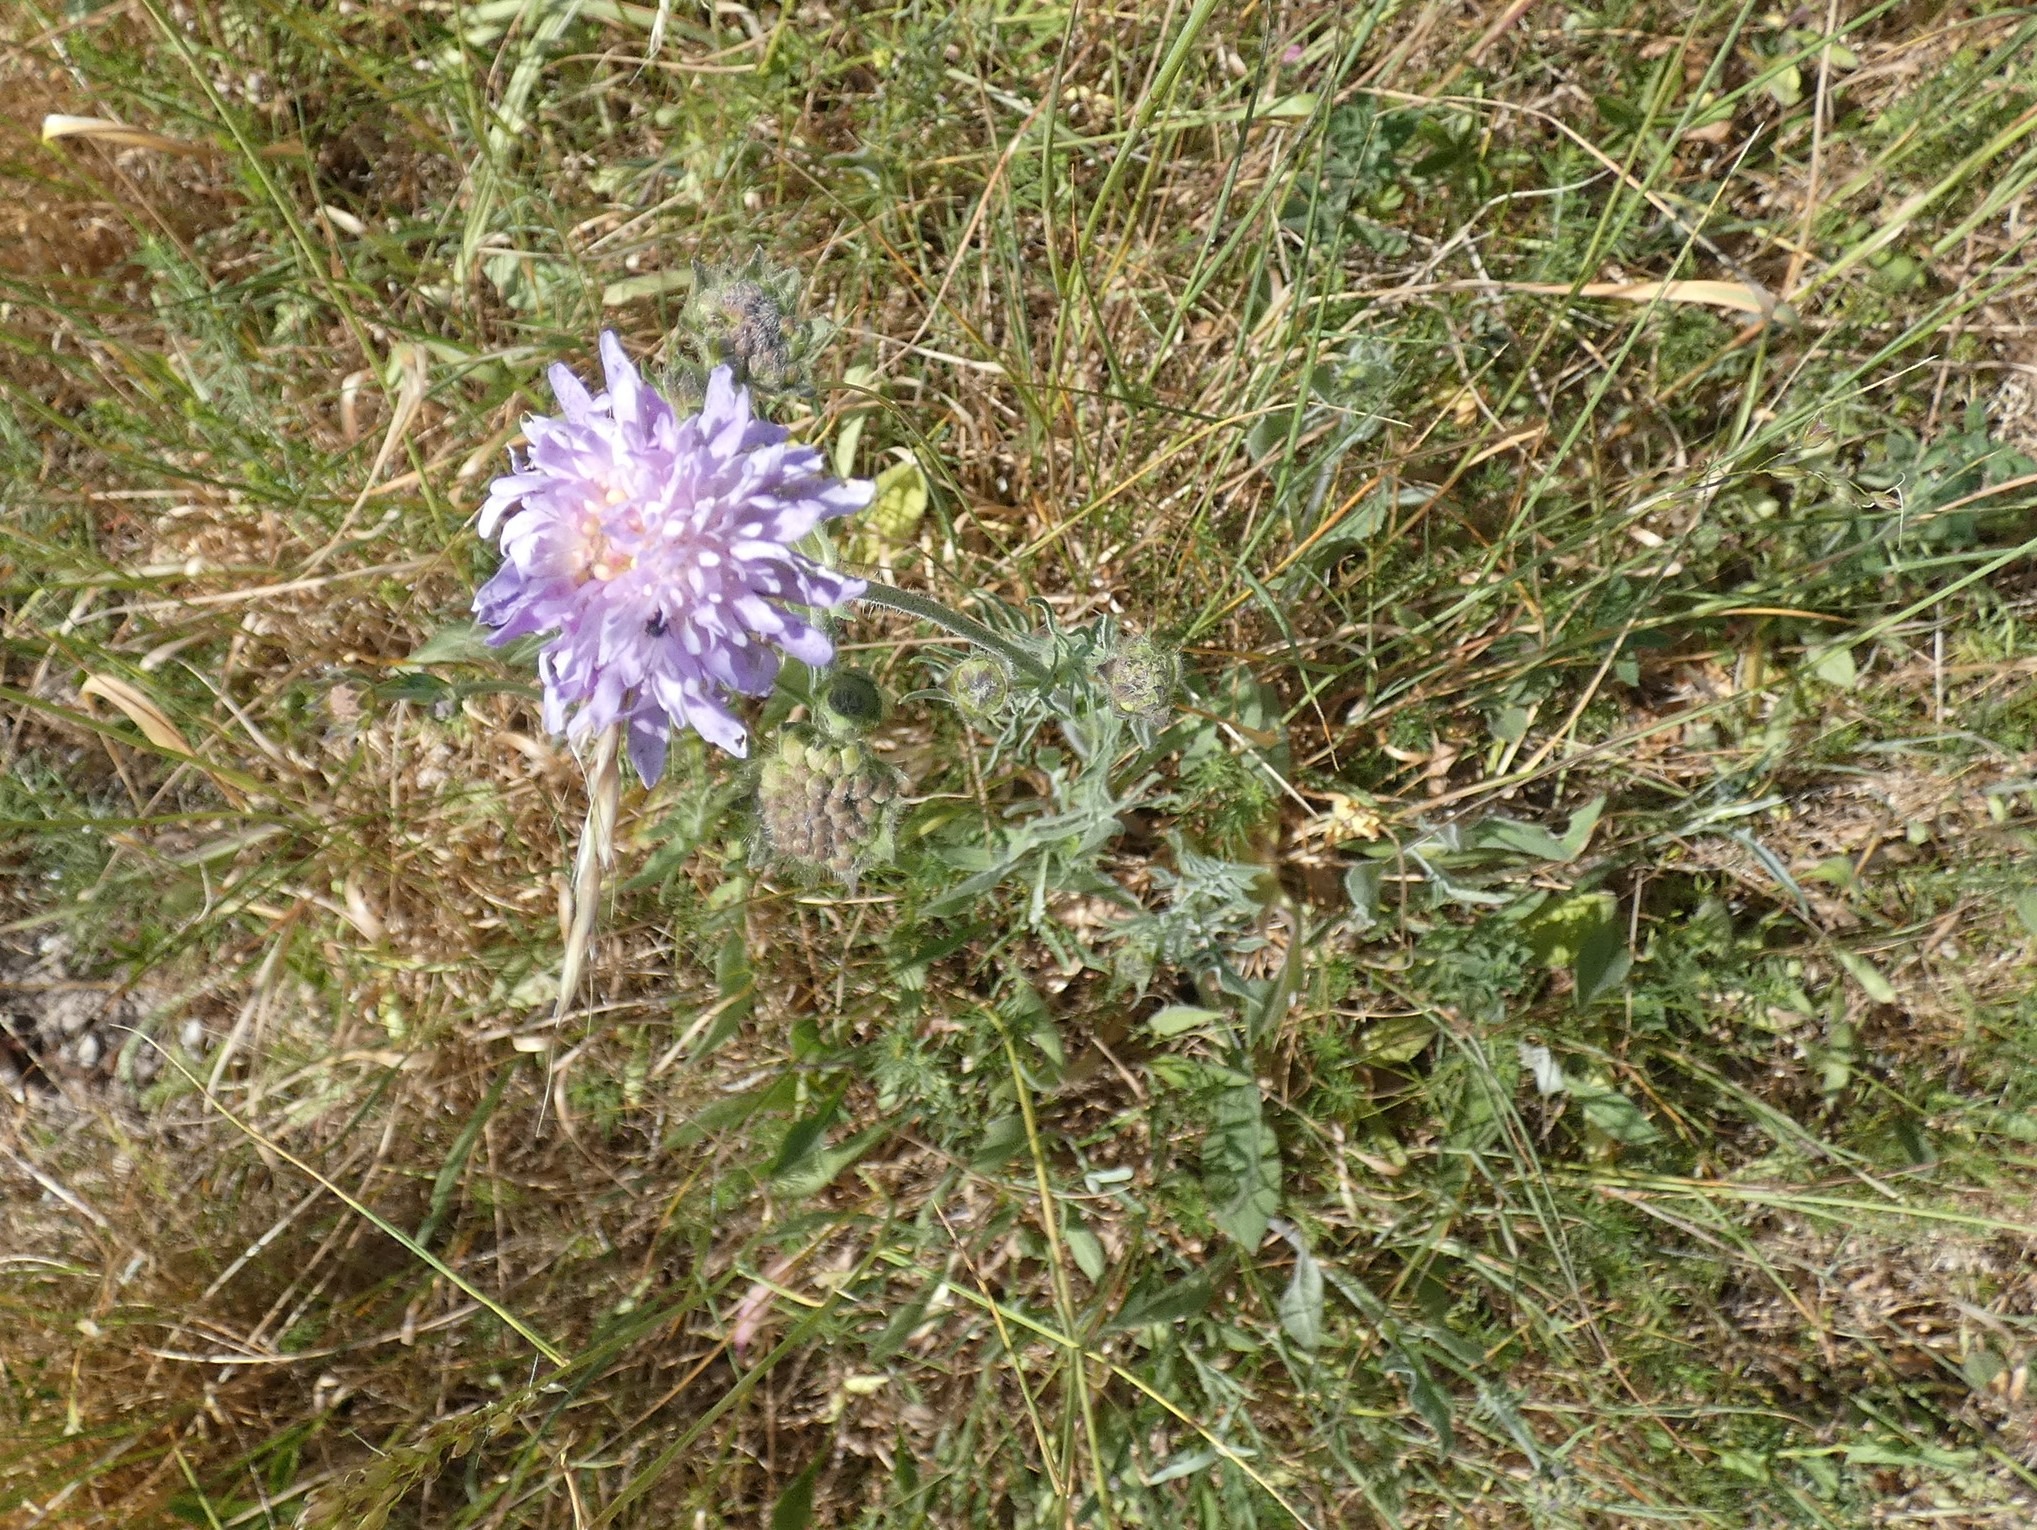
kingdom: Plantae
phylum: Tracheophyta
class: Magnoliopsida
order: Dipsacales
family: Caprifoliaceae
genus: Knautia
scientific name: Knautia arvensis
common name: Blåhat
